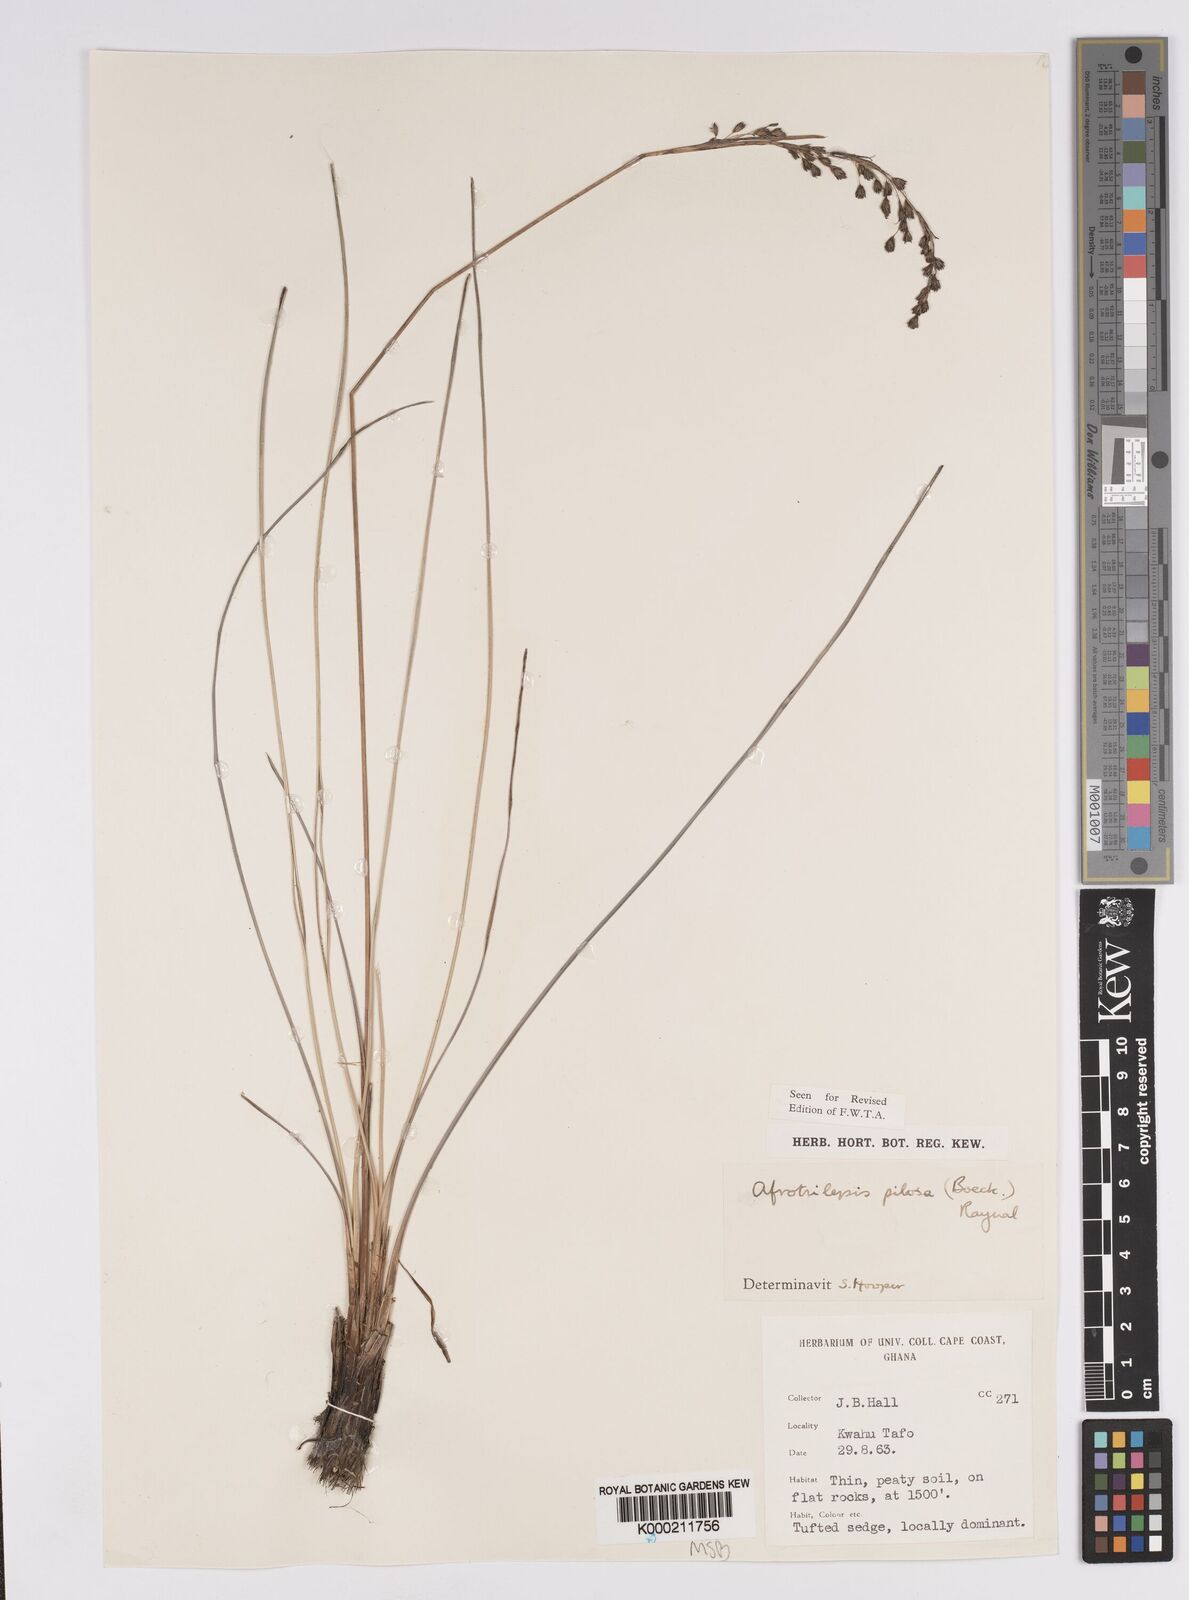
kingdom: Plantae
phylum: Tracheophyta
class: Liliopsida
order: Poales
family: Cyperaceae
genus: Afrotrilepis
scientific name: Afrotrilepis pilosa
